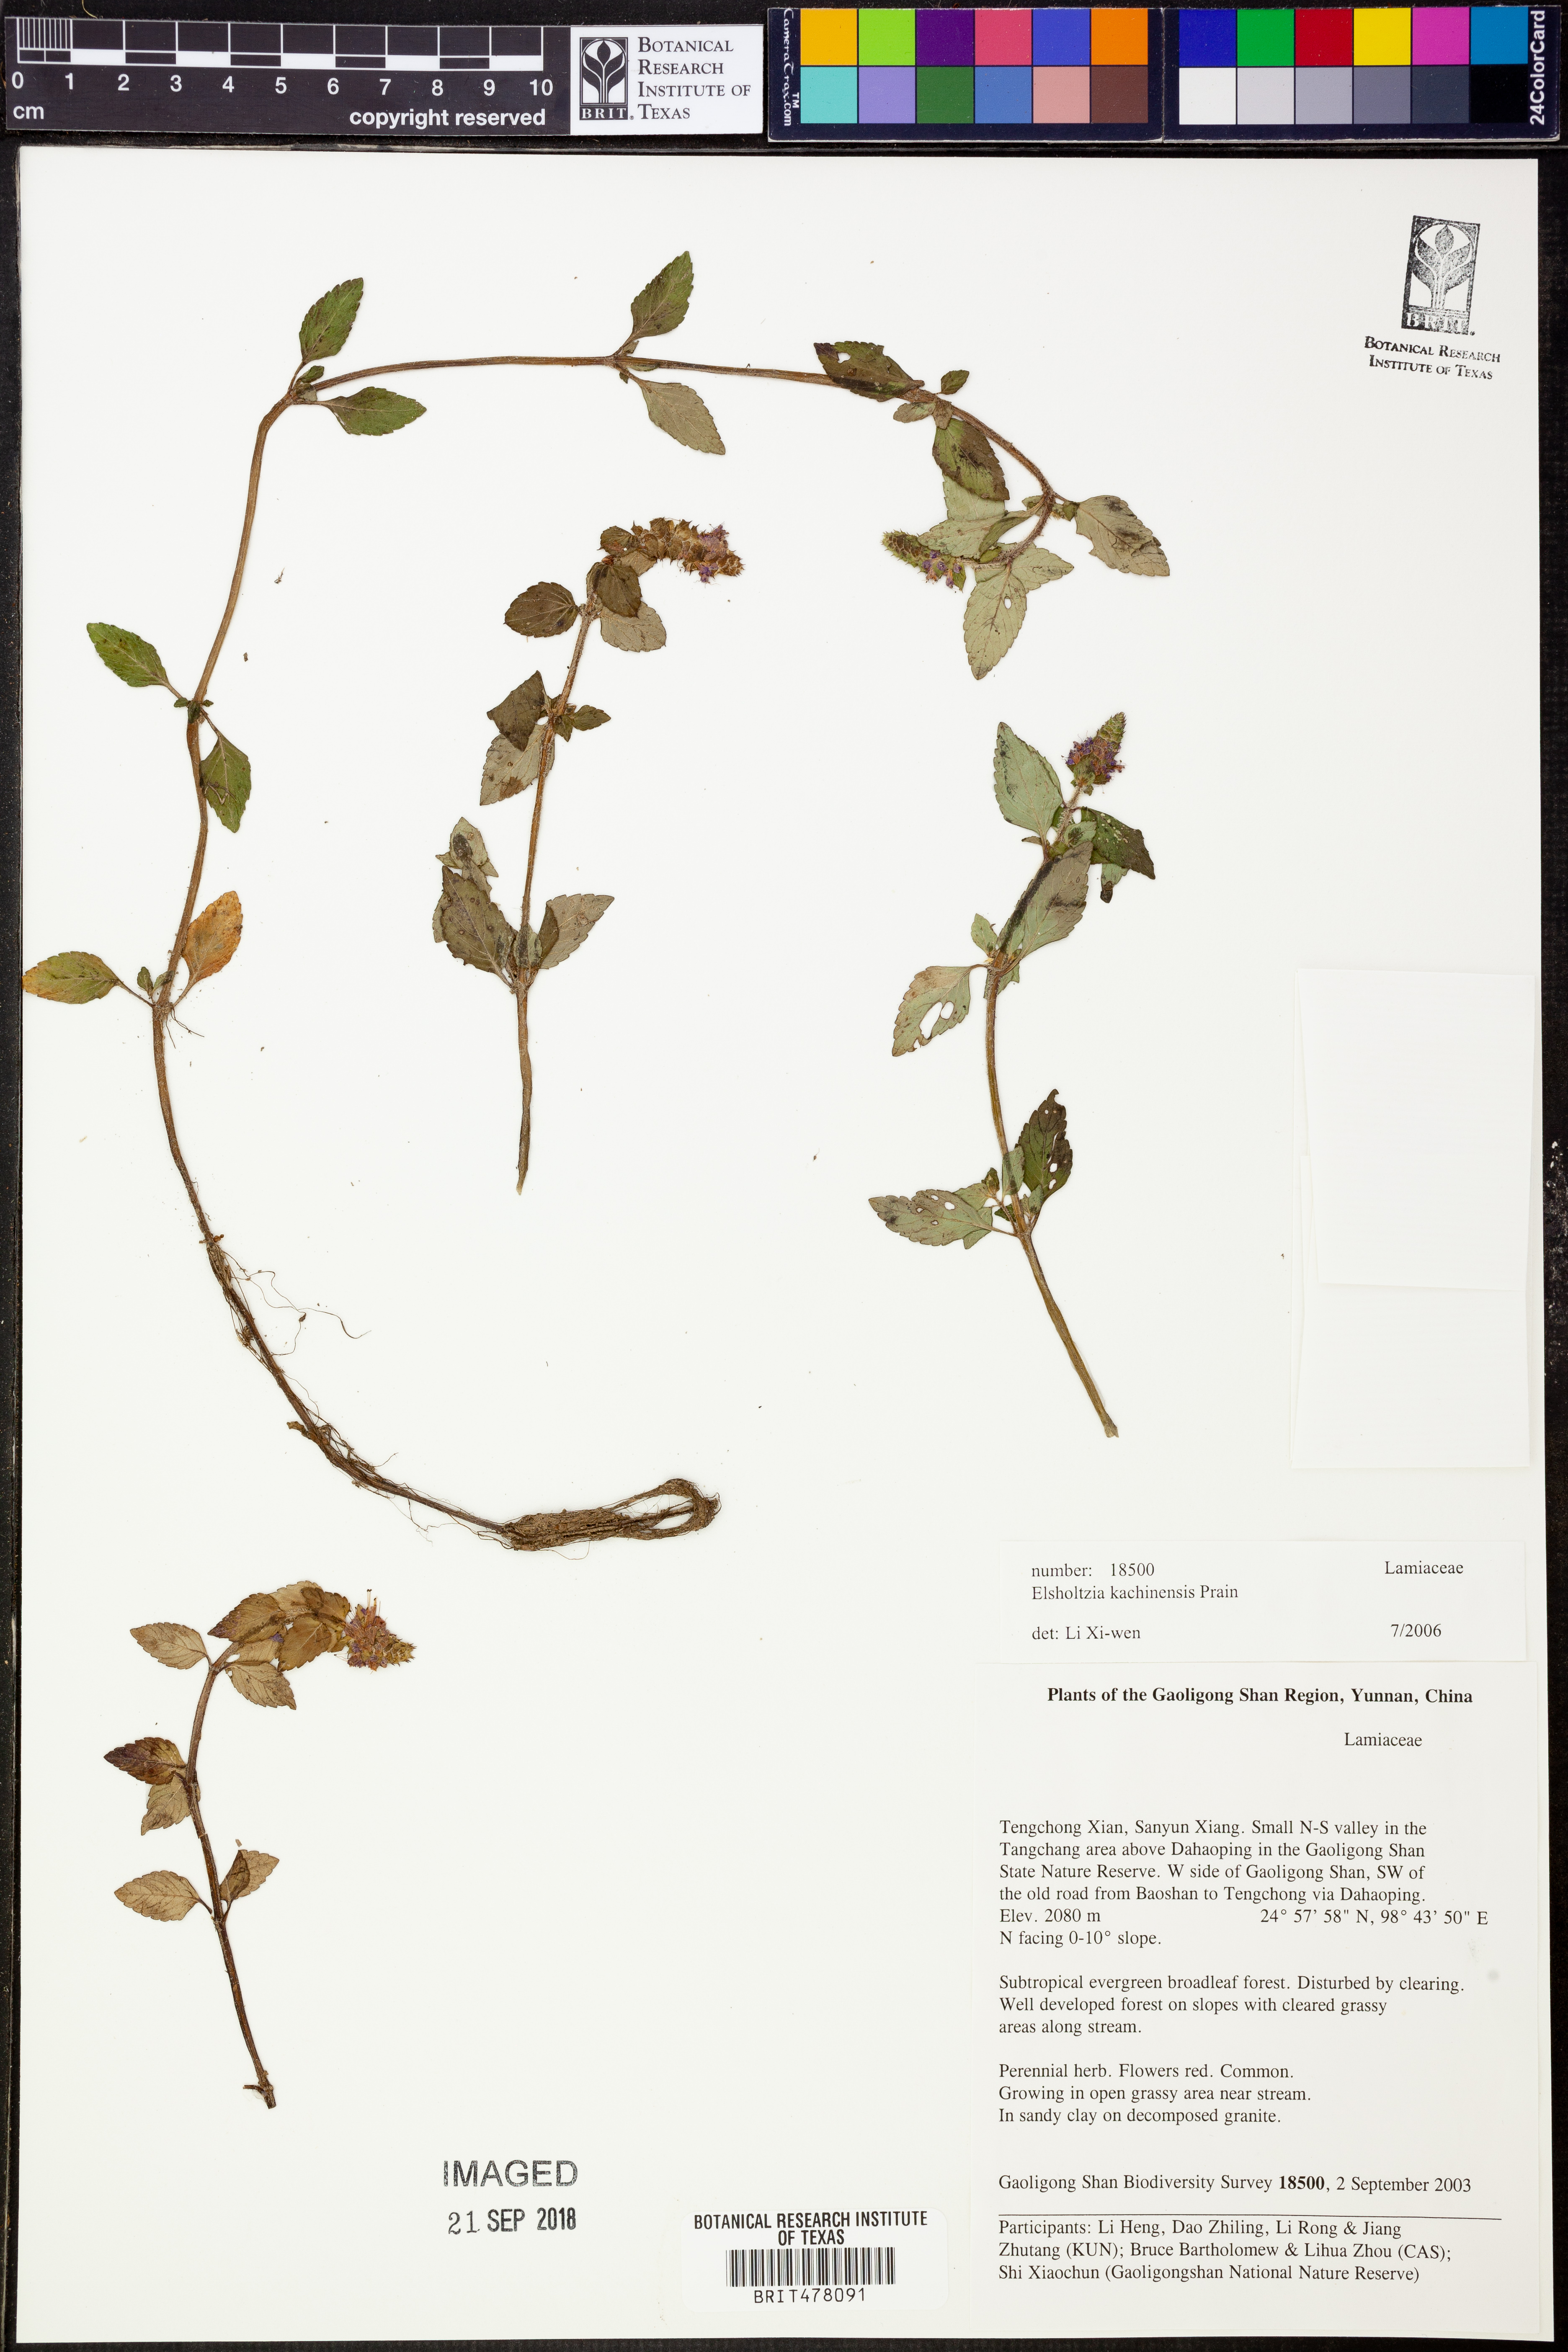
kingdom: Plantae
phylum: Tracheophyta
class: Magnoliopsida
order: Lamiales
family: Lamiaceae
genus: Elsholtzia
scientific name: Elsholtzia kachinensis
